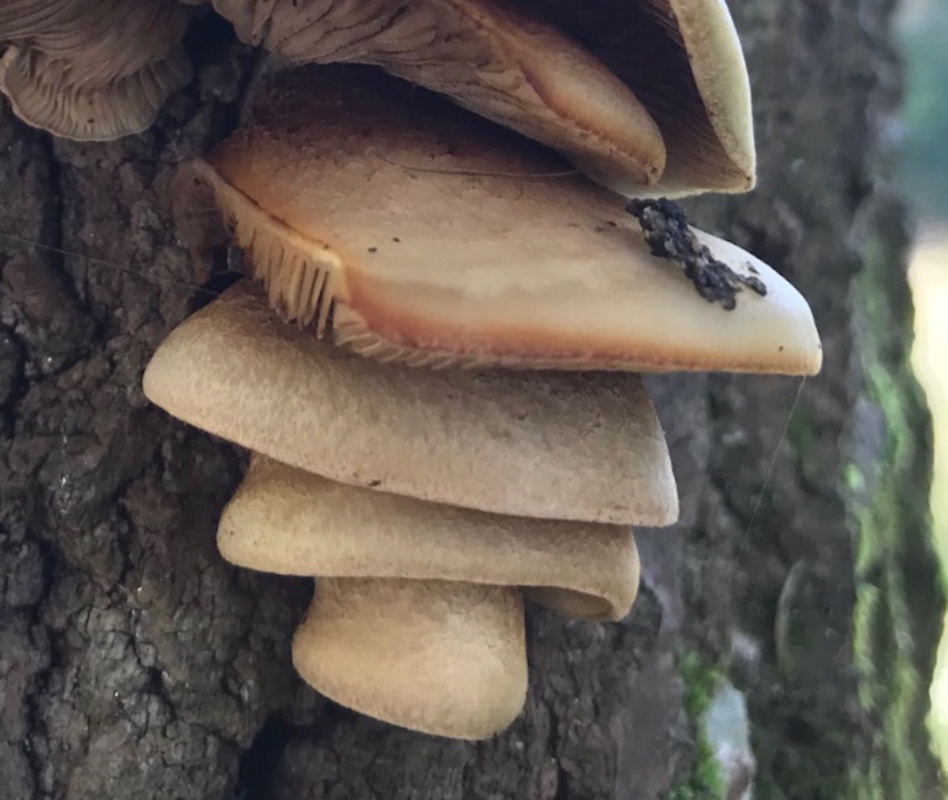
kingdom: Fungi
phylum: Basidiomycota
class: Agaricomycetes
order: Agaricales
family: Crepidotaceae
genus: Crepidotus
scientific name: Crepidotus calolepis
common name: småskællet muslingesvamp
